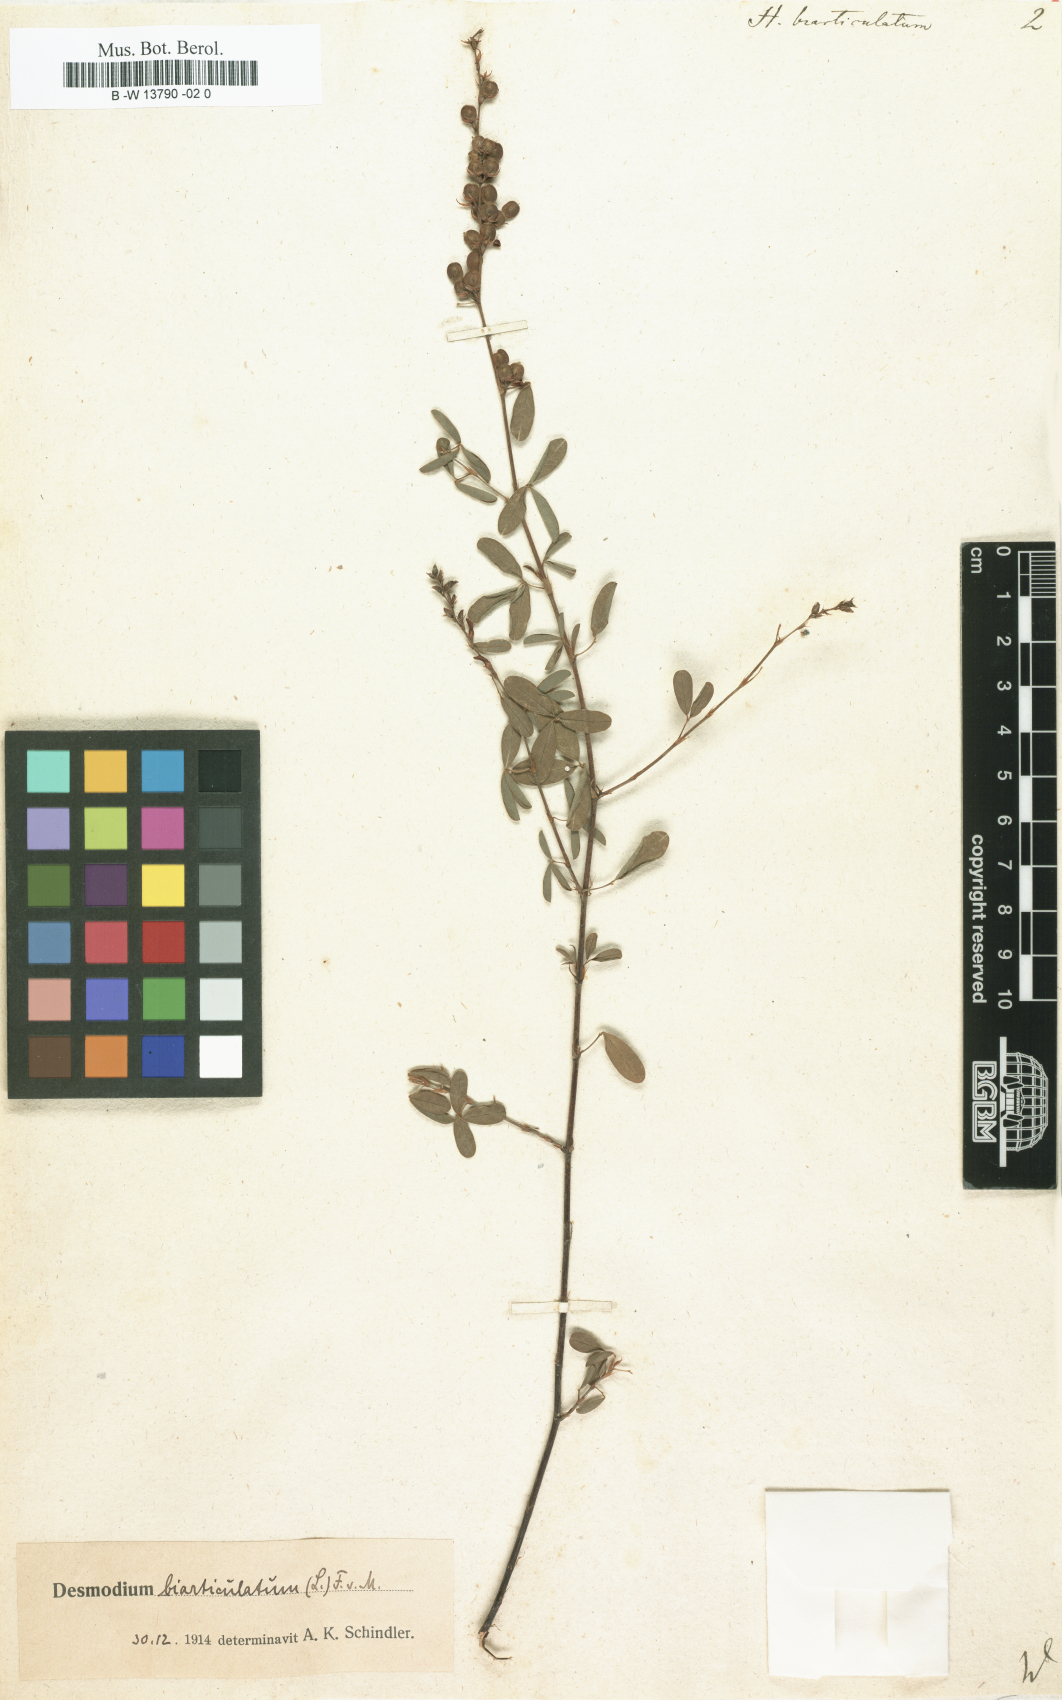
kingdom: Plantae
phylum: Tracheophyta
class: Magnoliopsida
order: Fabales
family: Fabaceae
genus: Aphyllodium
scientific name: Aphyllodium biarticulatum
